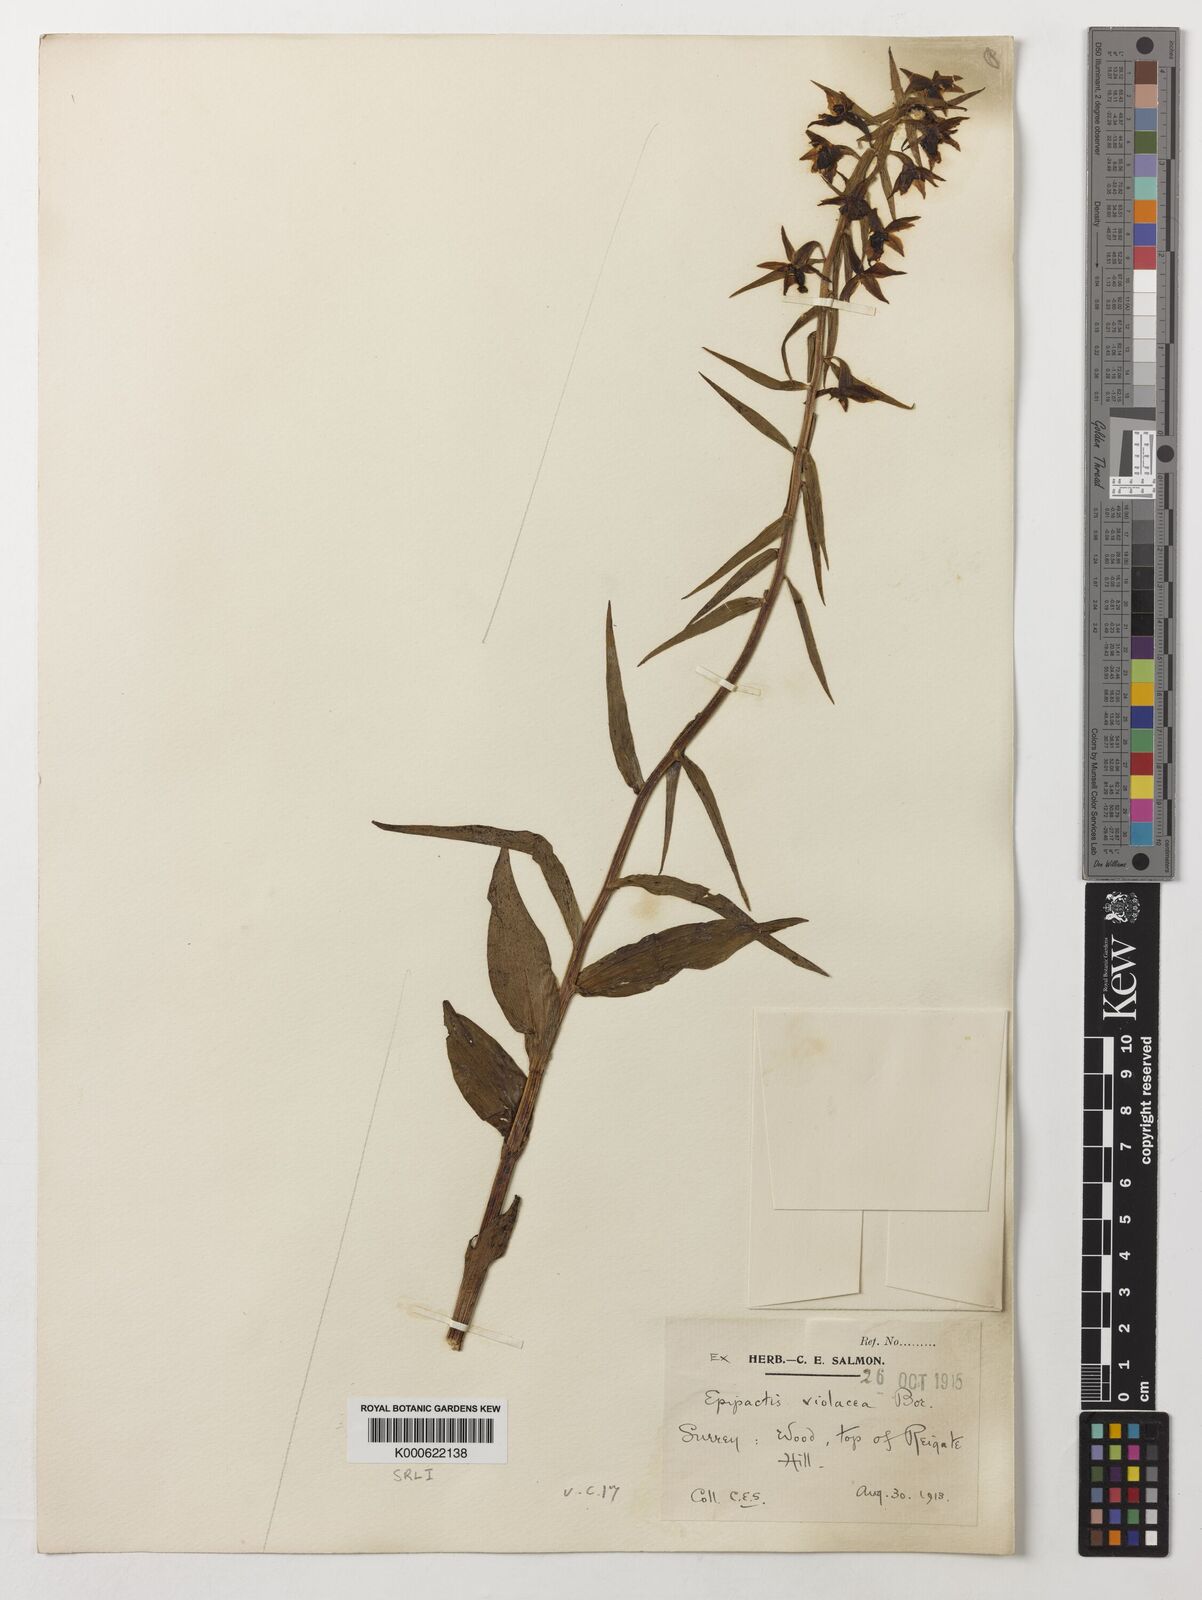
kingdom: Plantae
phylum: Tracheophyta
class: Liliopsida
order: Asparagales
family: Orchidaceae
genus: Epipactis
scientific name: Epipactis purpurata
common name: Violet helleborine
